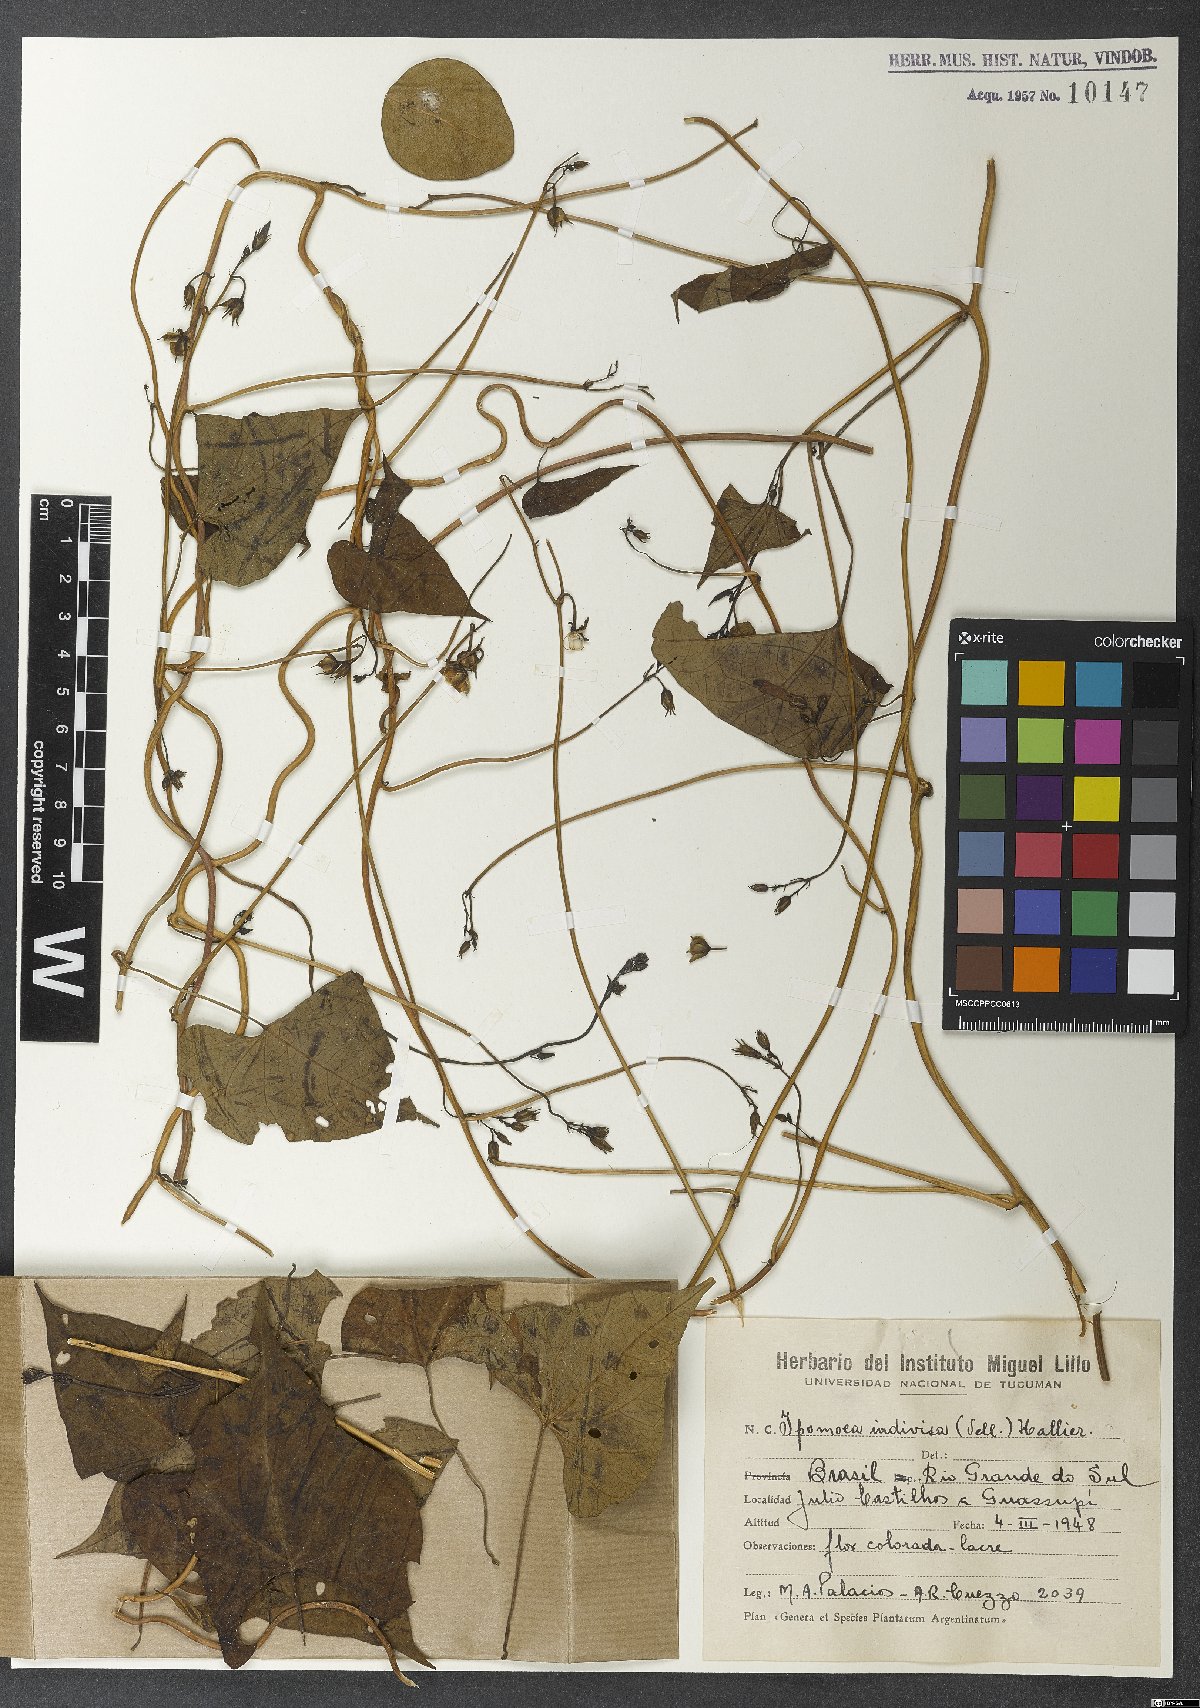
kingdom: Plantae
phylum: Tracheophyta
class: Magnoliopsida
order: Solanales
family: Convolvulaceae
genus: Ipomoea
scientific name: Ipomoea indivisa
